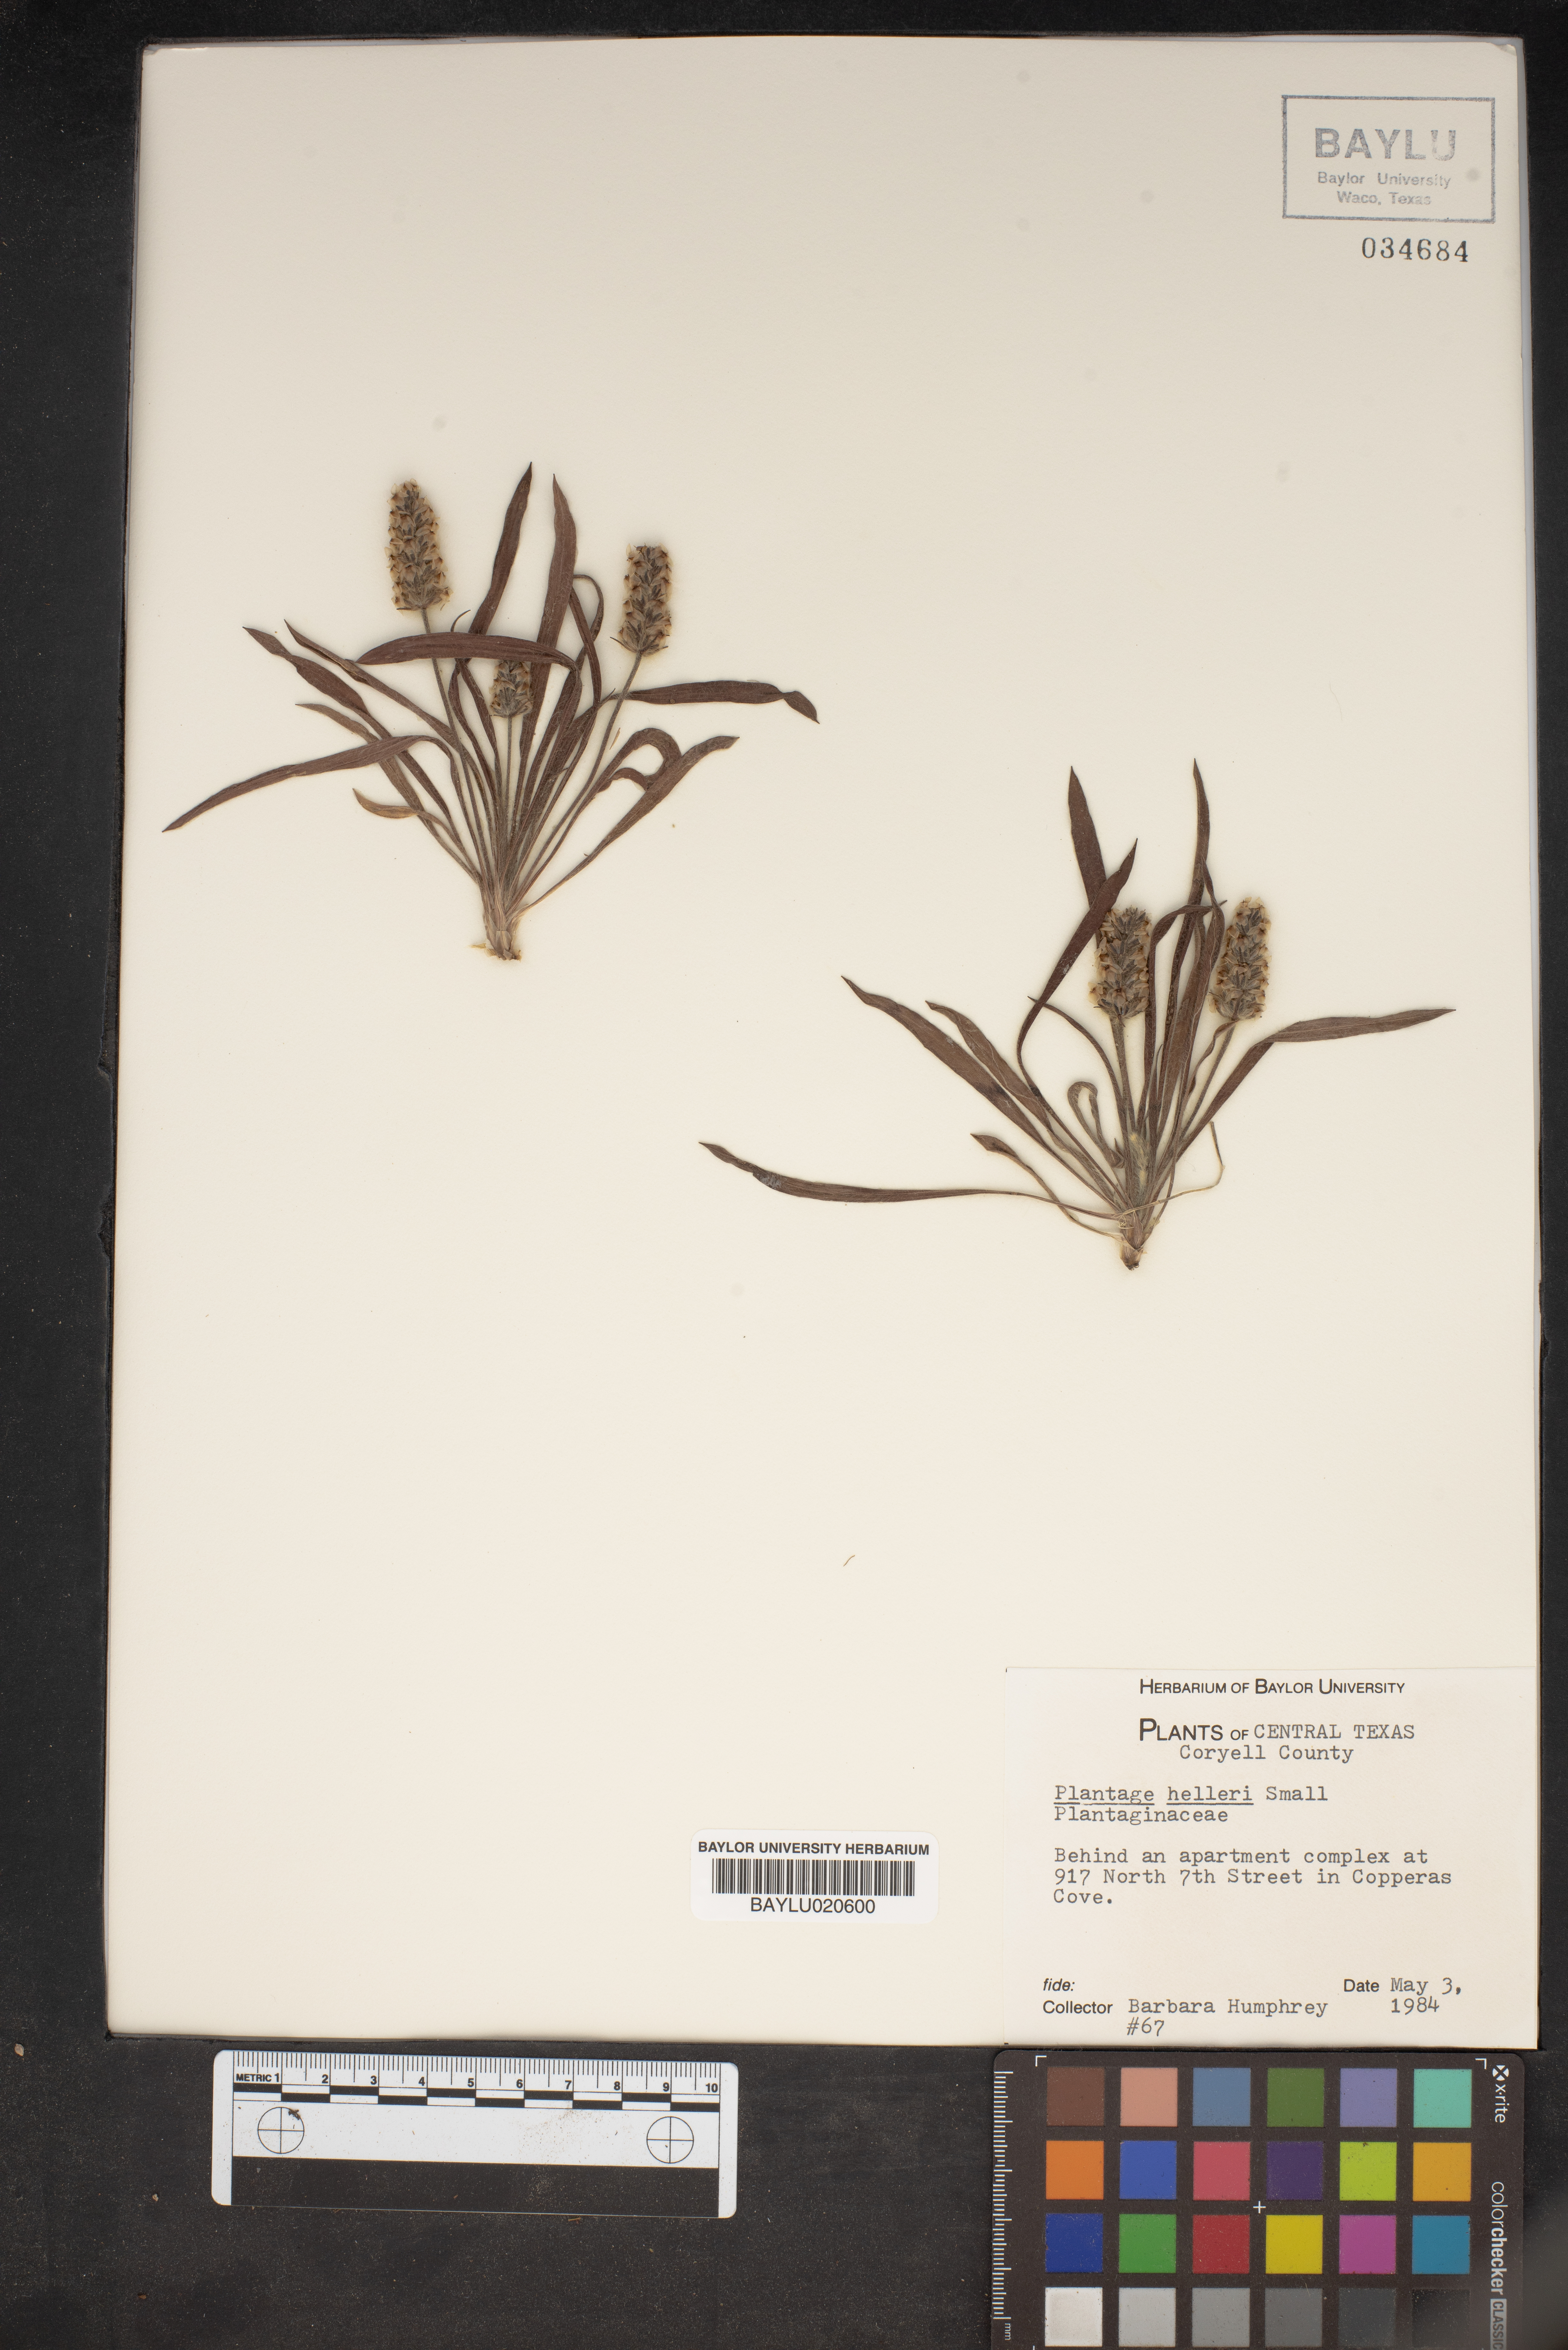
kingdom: Plantae
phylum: Tracheophyta
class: Magnoliopsida
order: Lamiales
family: Plantaginaceae
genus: Plantago
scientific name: Plantago helleri
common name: Heller's plantain
